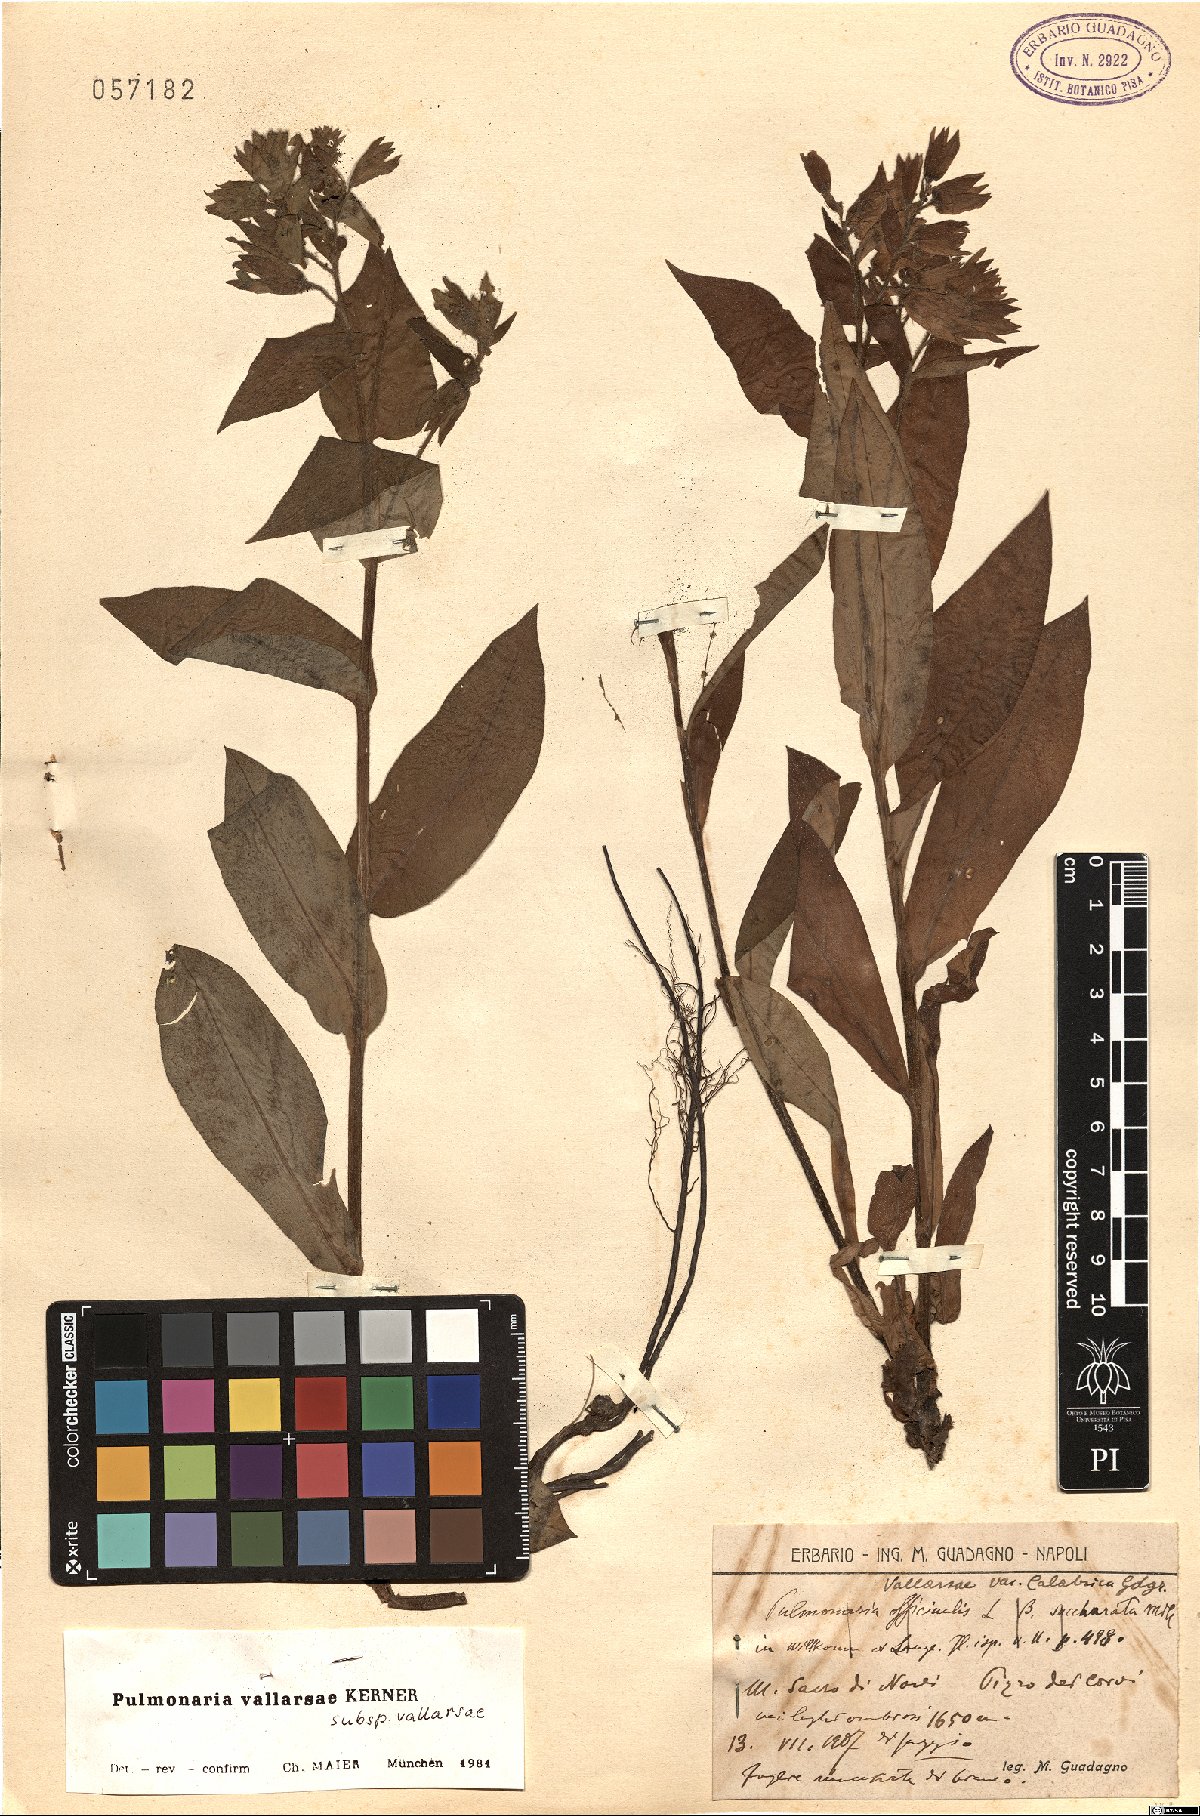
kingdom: Plantae
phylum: Tracheophyta
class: Magnoliopsida
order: Boraginales
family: Boraginaceae
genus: Pulmonaria
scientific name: Pulmonaria hirta
